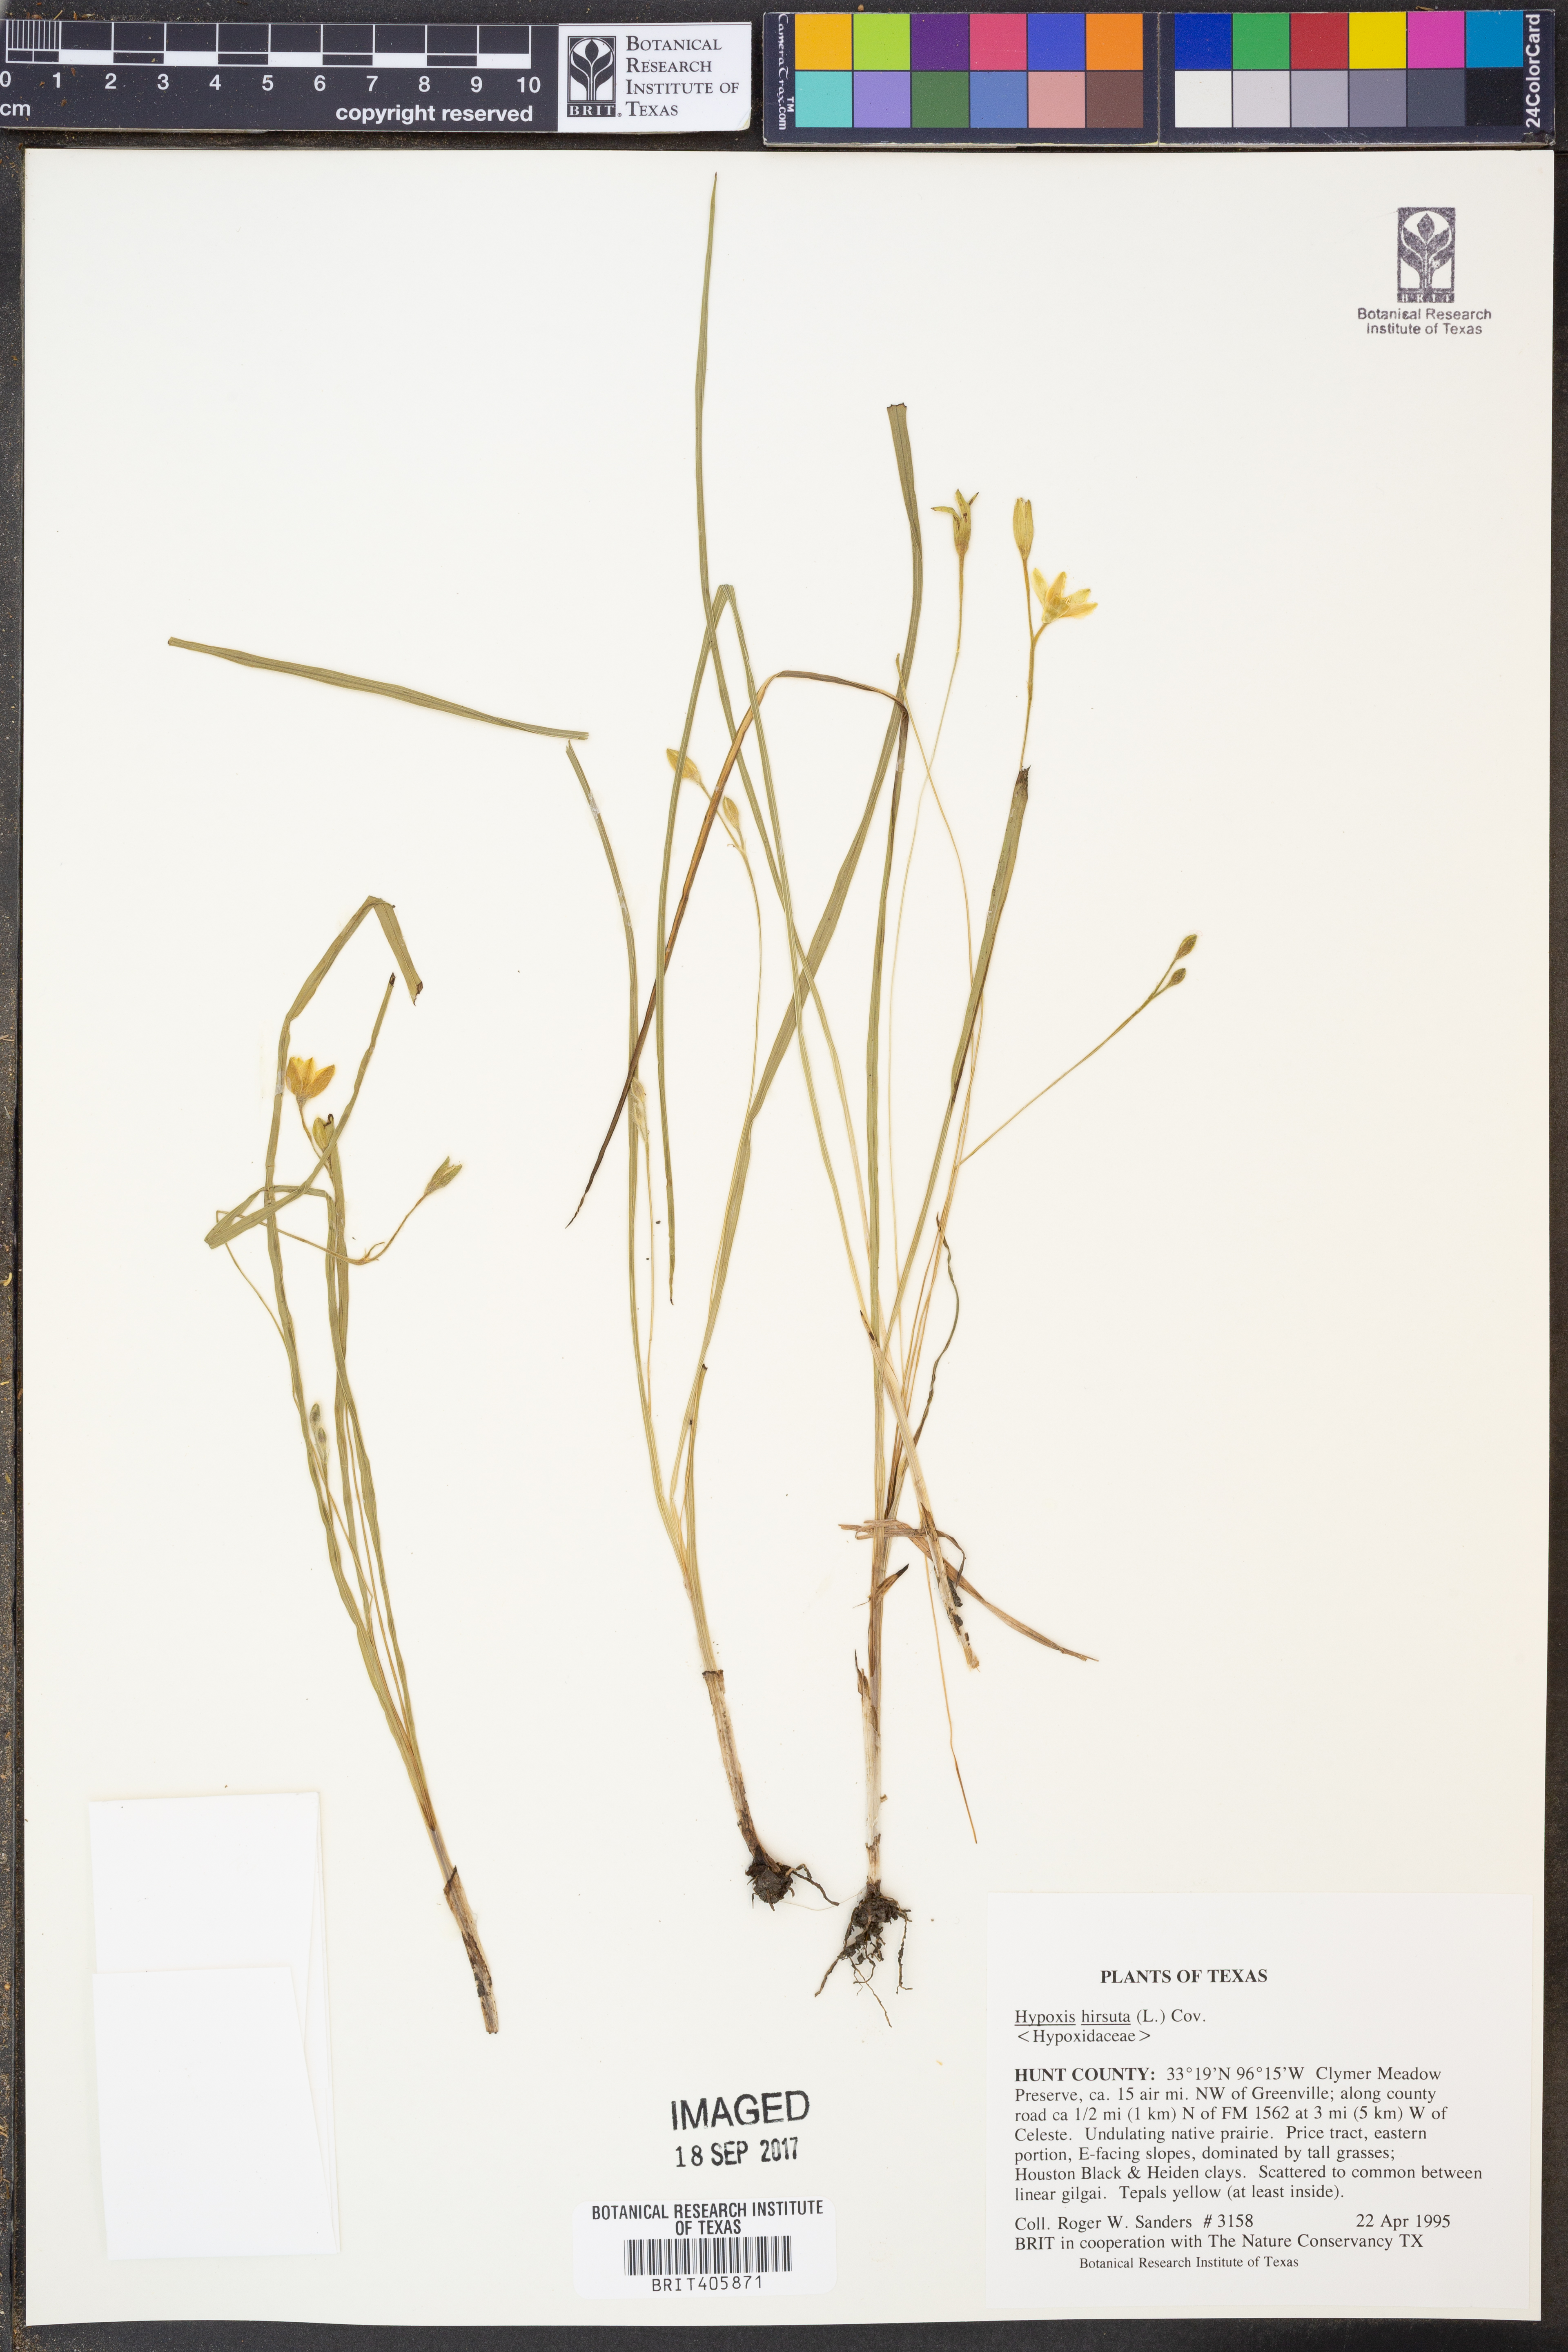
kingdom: Plantae
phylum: Tracheophyta
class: Liliopsida
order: Asparagales
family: Hypoxidaceae
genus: Hypoxis
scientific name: Hypoxis hirsuta
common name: Common goldstar
